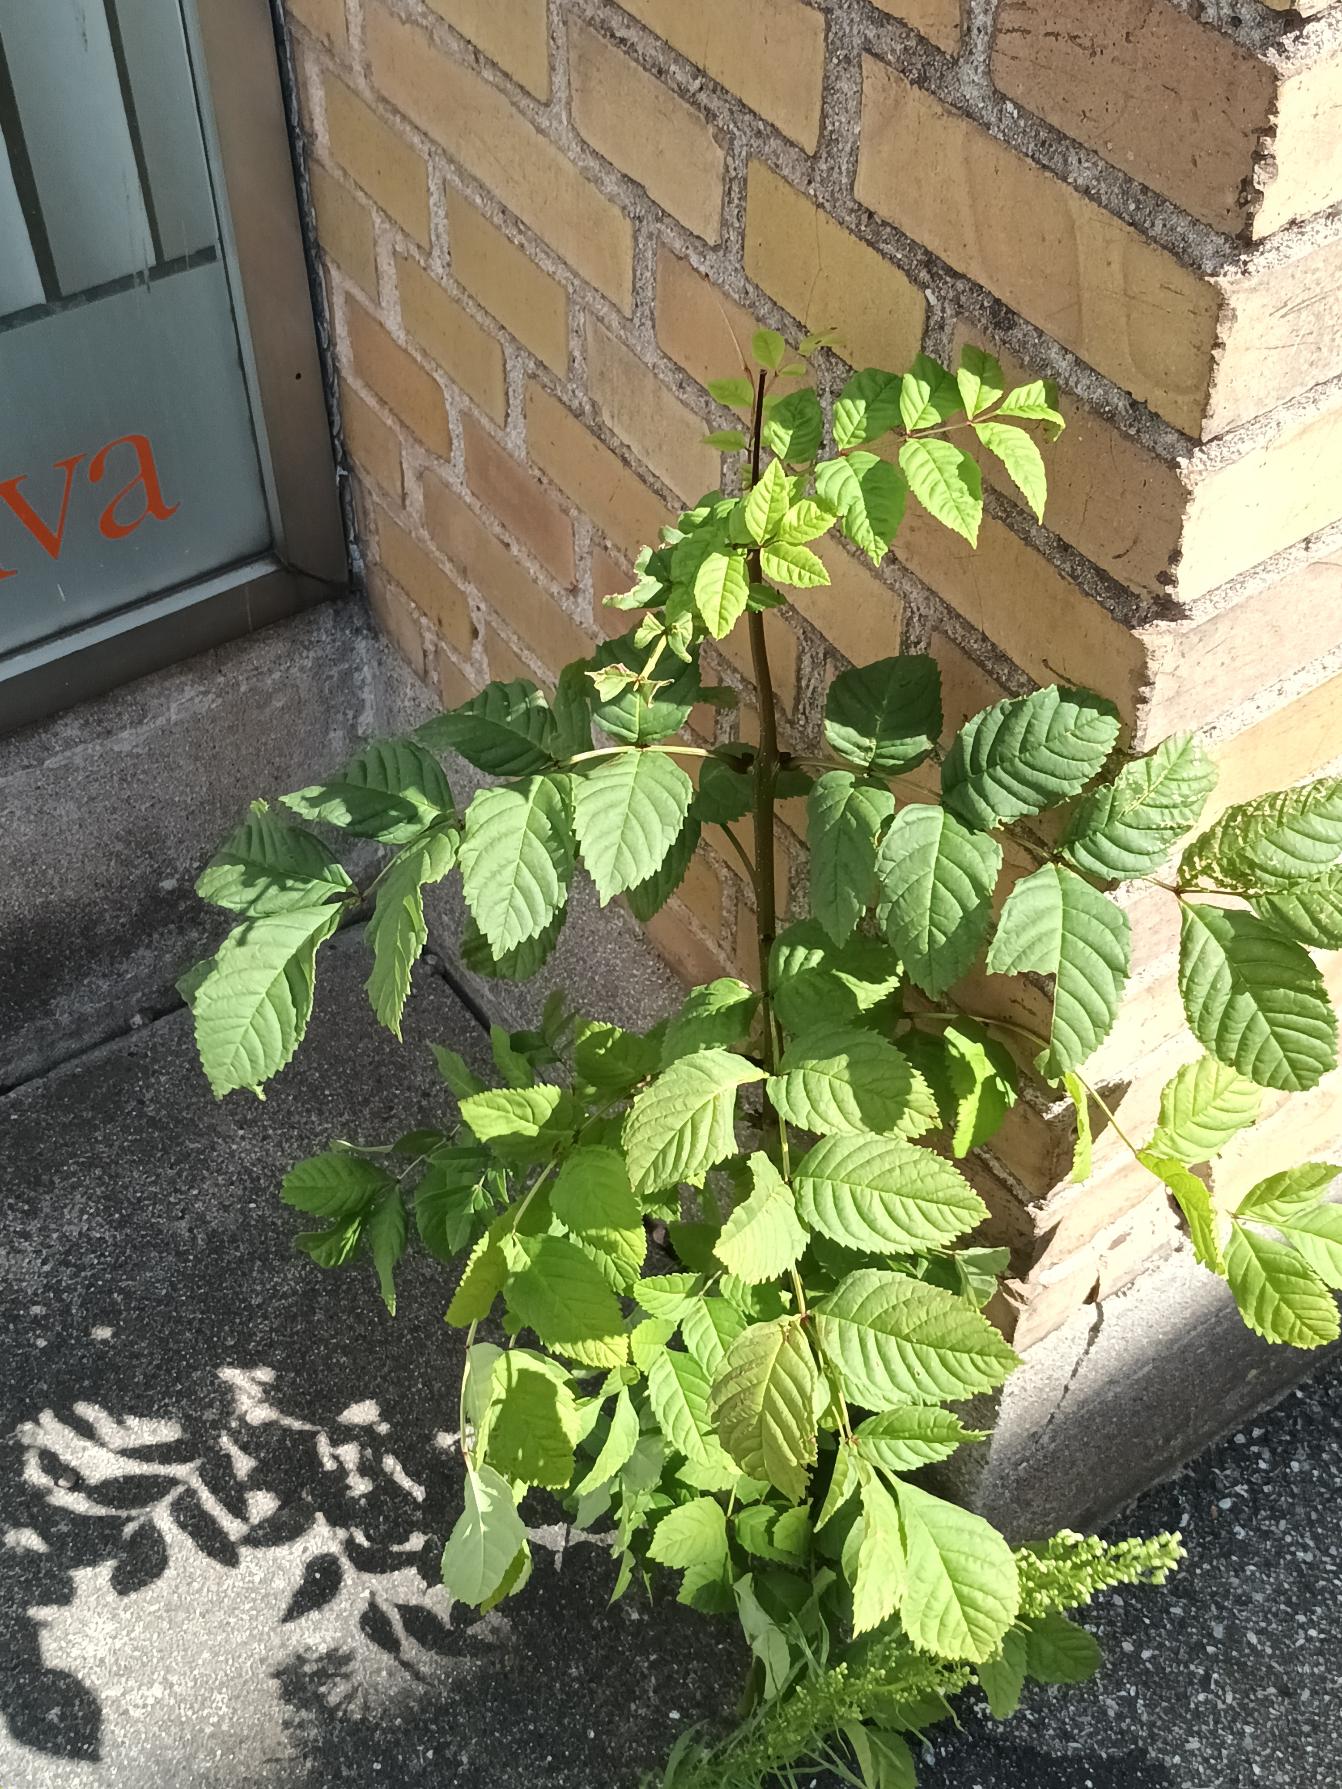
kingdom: Plantae
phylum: Tracheophyta
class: Magnoliopsida
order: Lamiales
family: Oleaceae
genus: Fraxinus
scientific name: Fraxinus excelsior
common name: Ask
